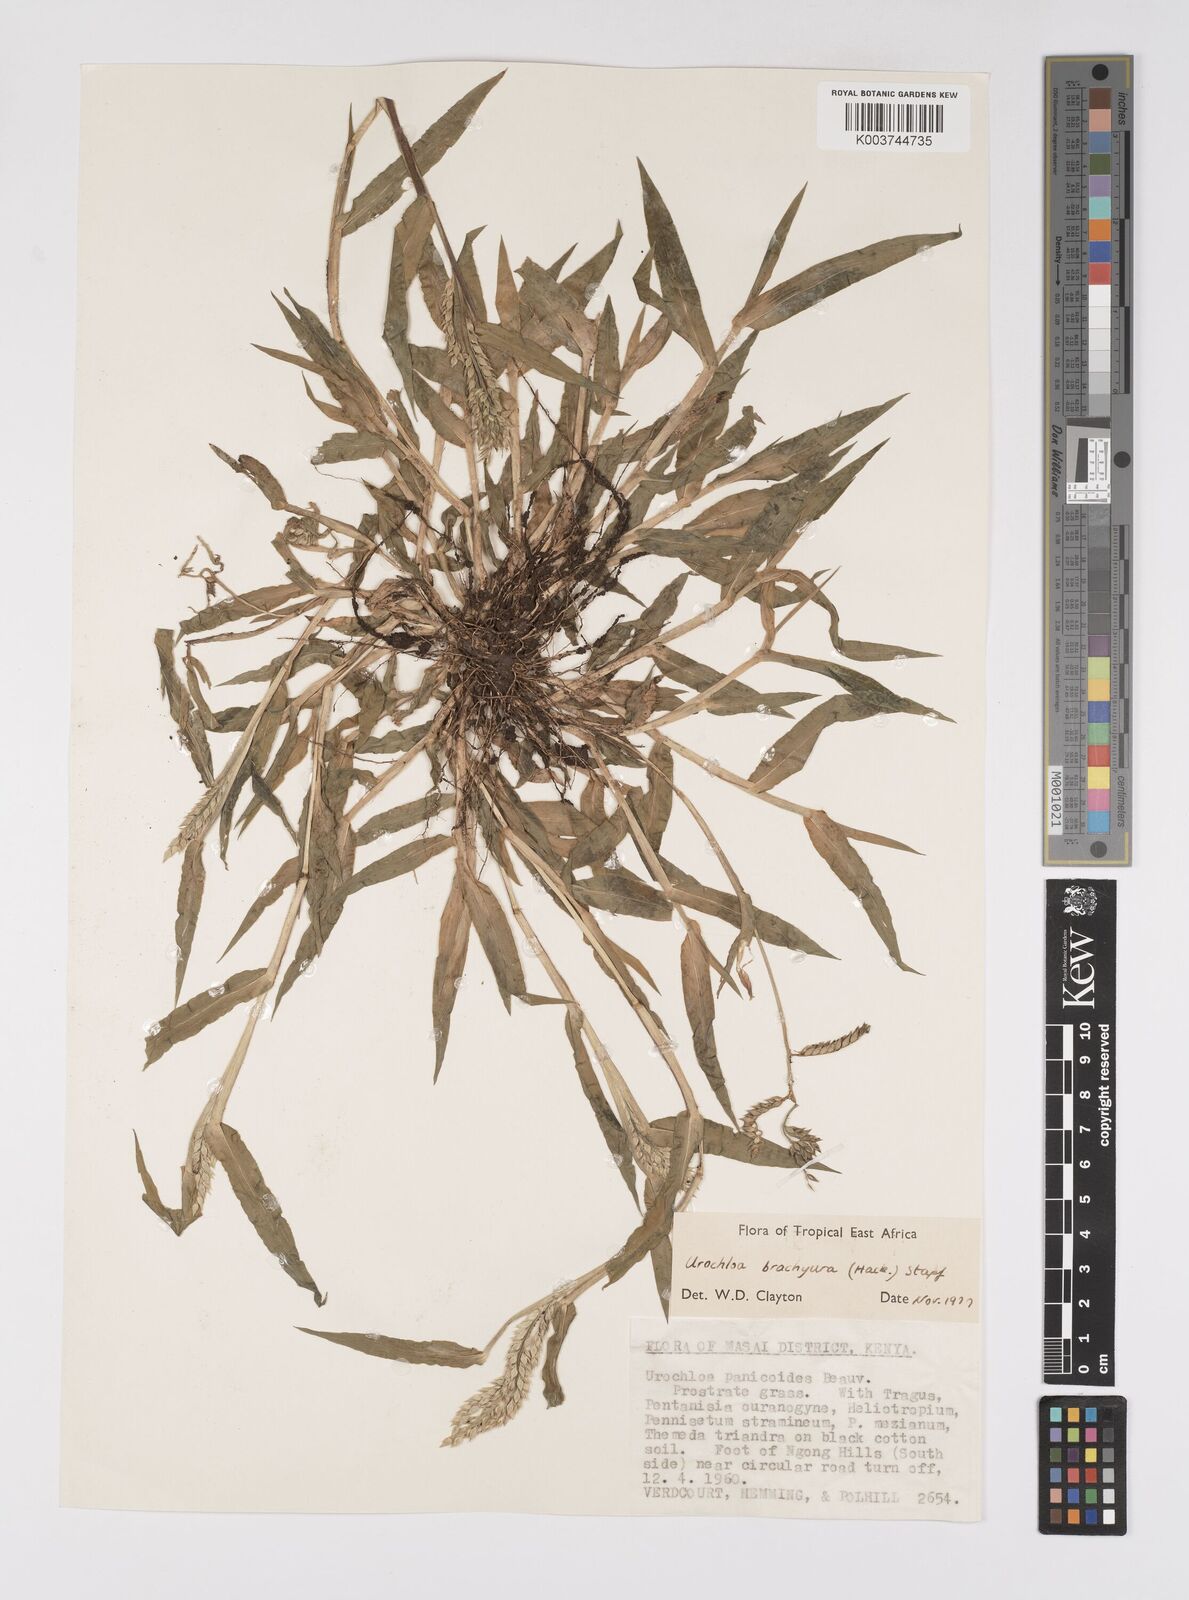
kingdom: Plantae
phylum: Tracheophyta
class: Liliopsida
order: Poales
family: Poaceae
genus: Urochloa
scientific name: Urochloa brachyura
